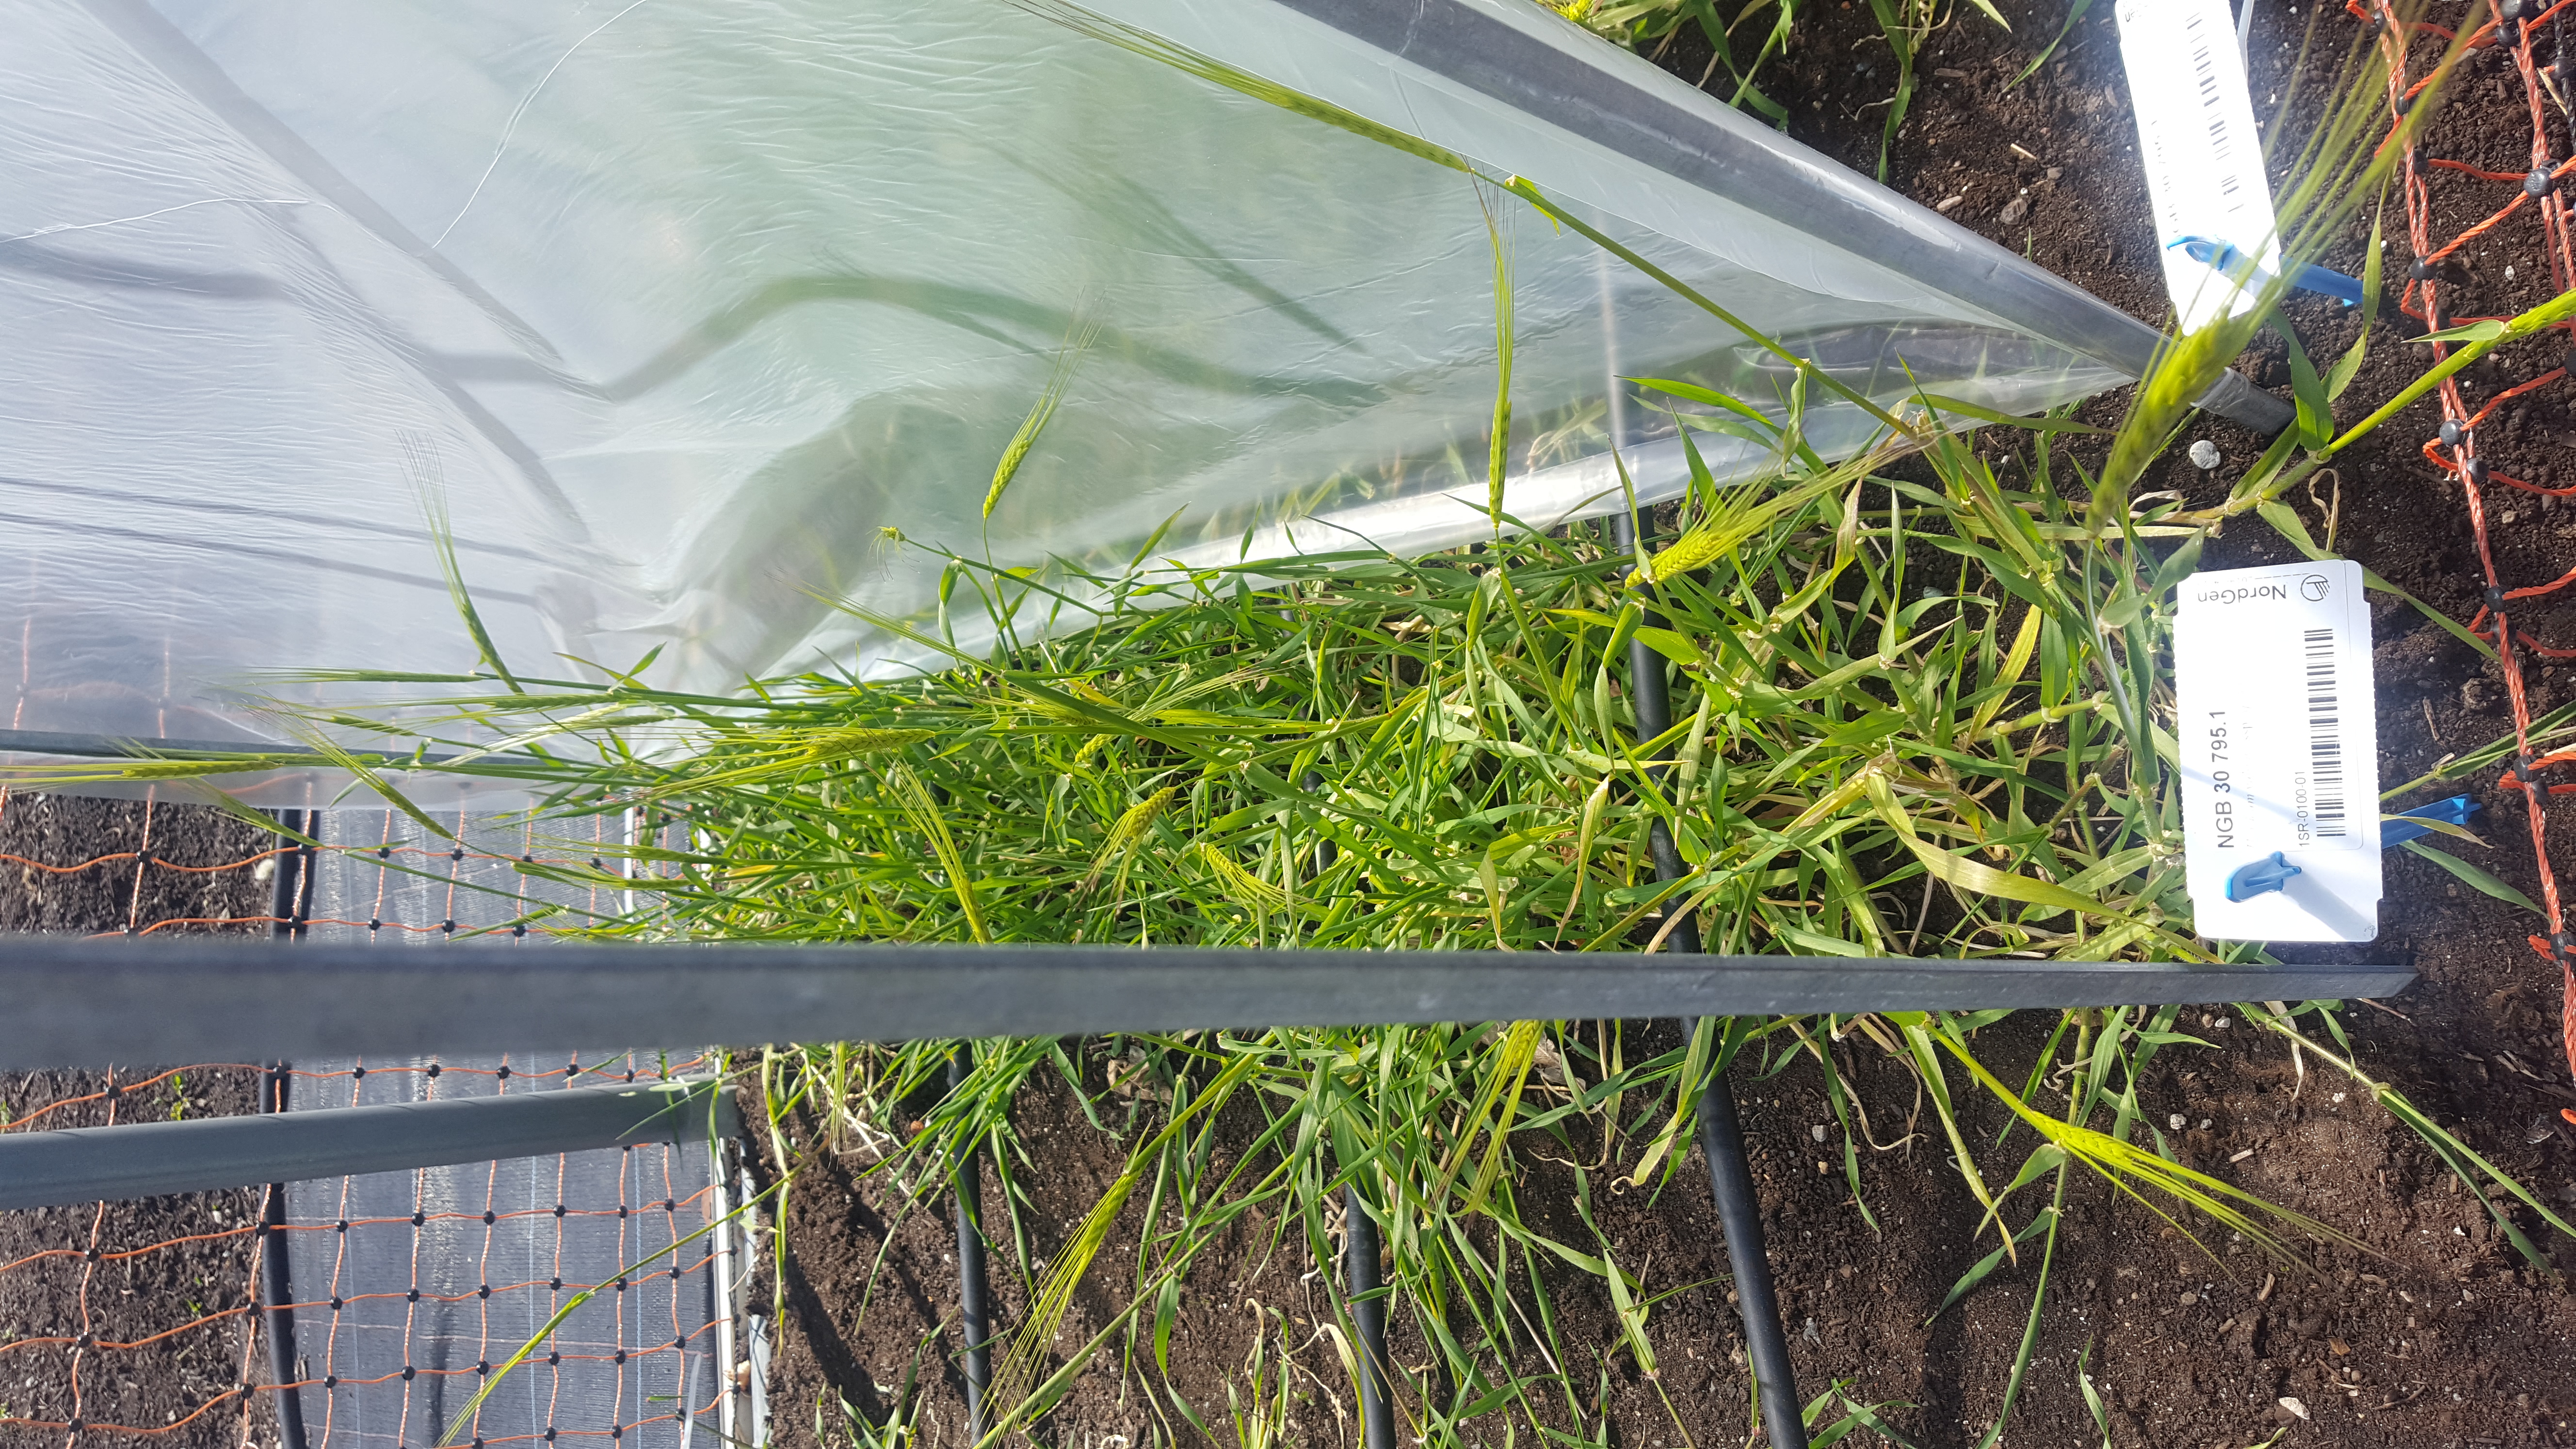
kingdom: Plantae
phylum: Tracheophyta
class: Liliopsida
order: Poales
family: Poaceae
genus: Hordeum
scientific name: Hordeum spontaneum
